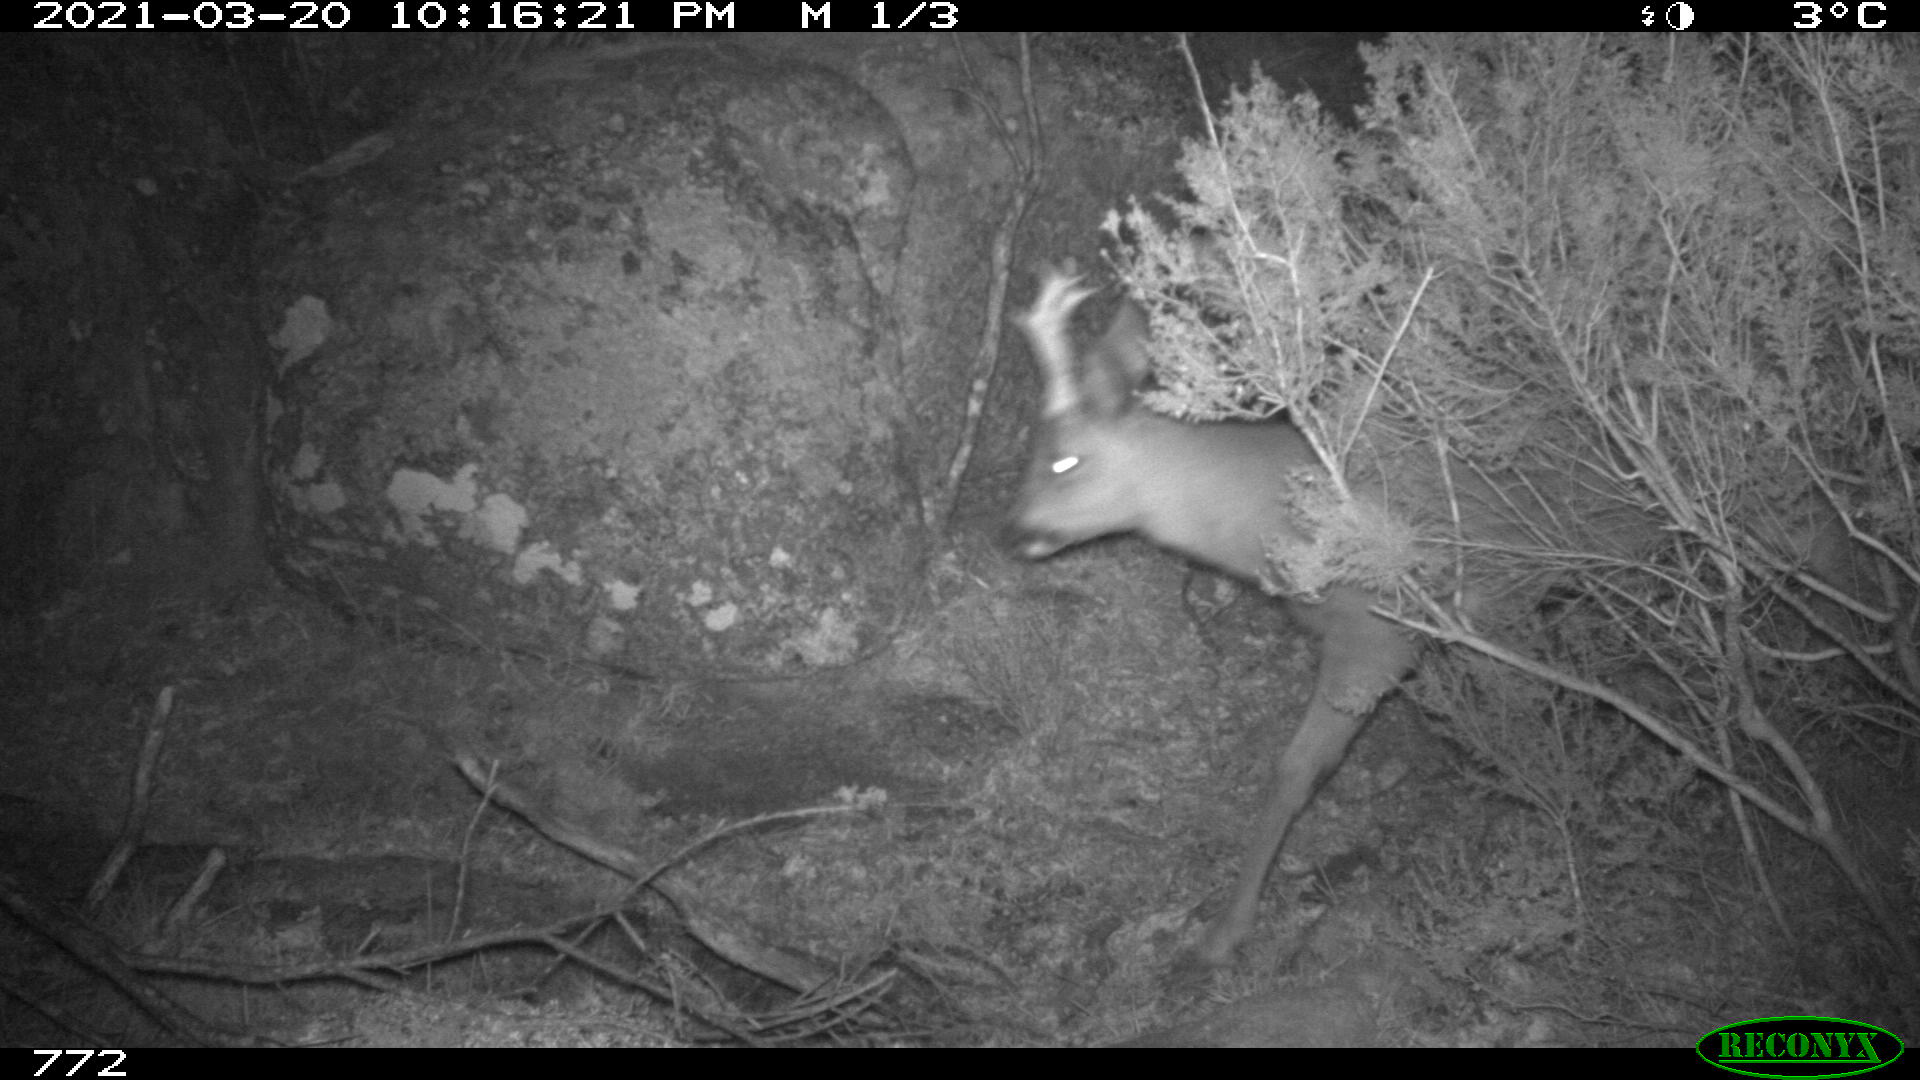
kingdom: Animalia
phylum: Chordata
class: Mammalia
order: Artiodactyla
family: Cervidae
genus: Capreolus
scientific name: Capreolus capreolus
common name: Western roe deer
